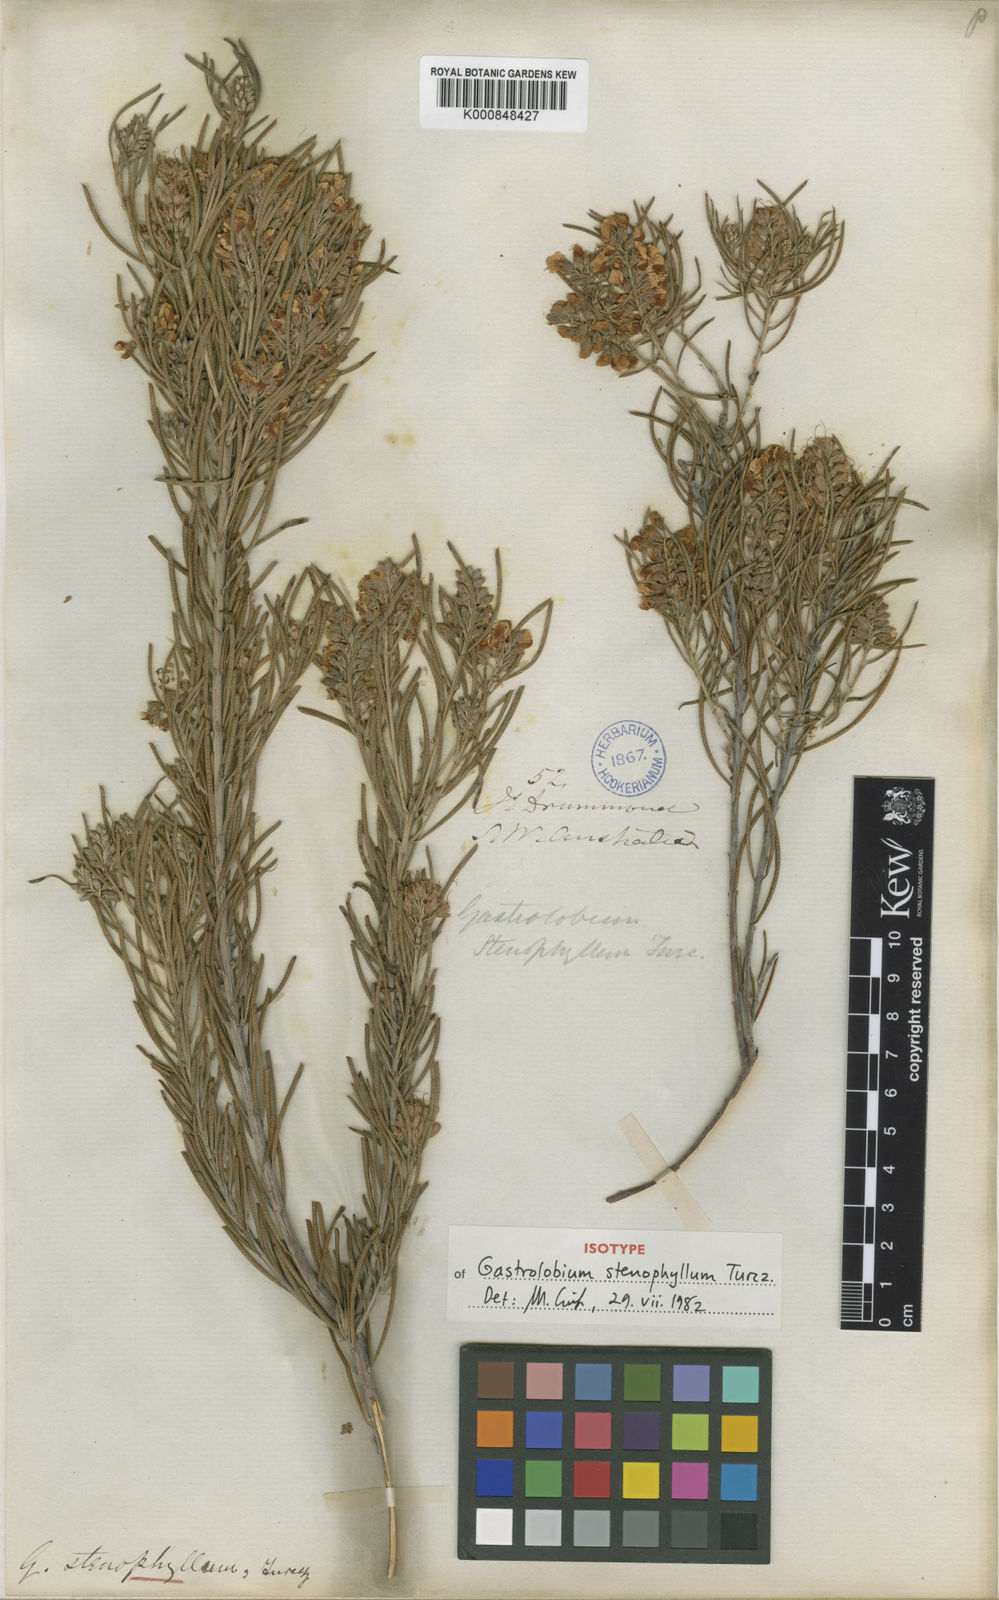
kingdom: Plantae
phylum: Tracheophyta
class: Magnoliopsida
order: Fabales
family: Fabaceae
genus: Gastrolobium
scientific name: Gastrolobium stenophyllum
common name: Narrow-leaf poison
